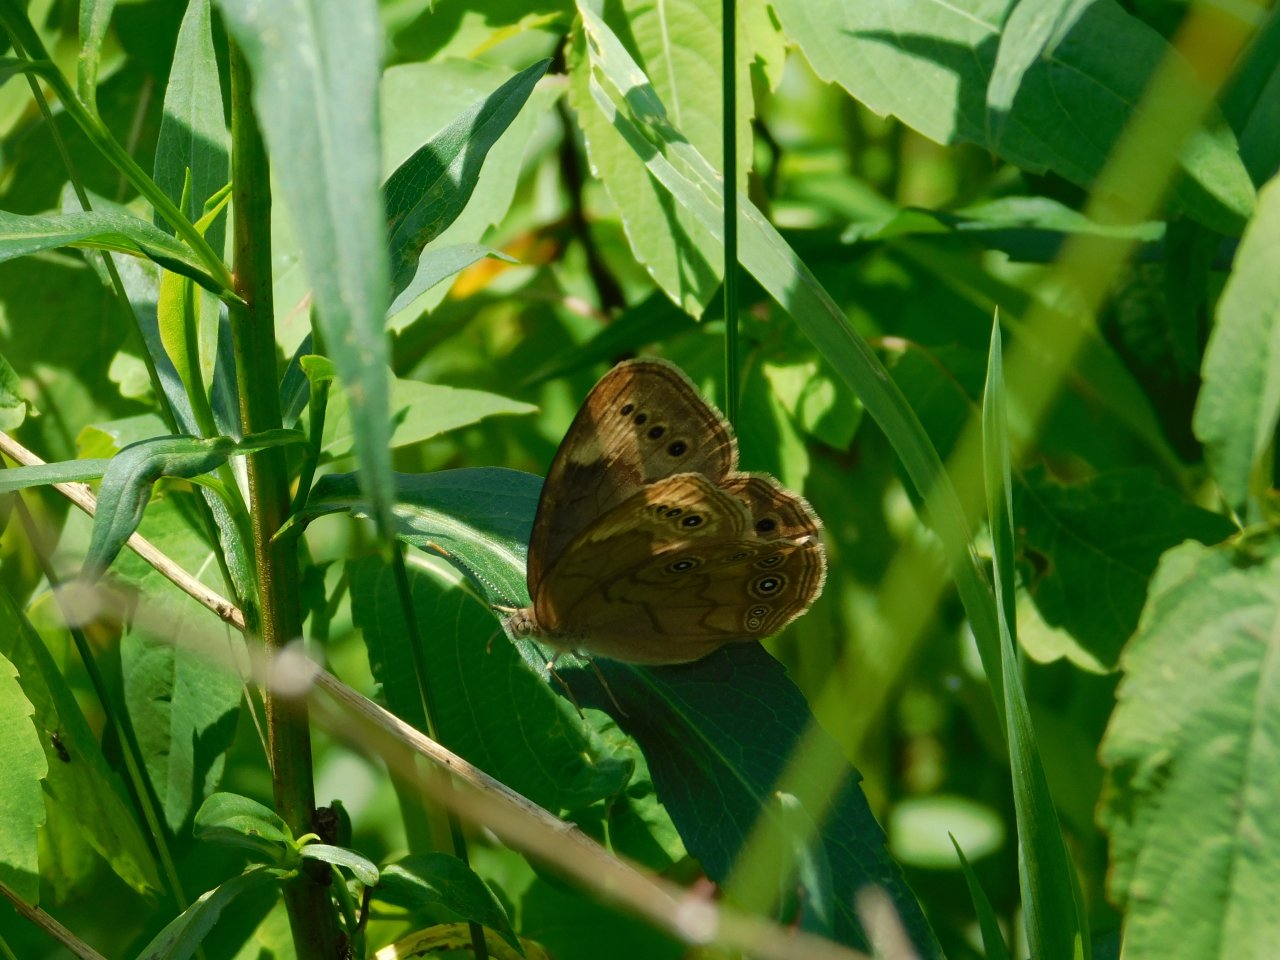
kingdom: Animalia
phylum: Arthropoda
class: Insecta
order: Lepidoptera
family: Nymphalidae
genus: Lethe
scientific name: Lethe eurydice
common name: Eyed Brown
